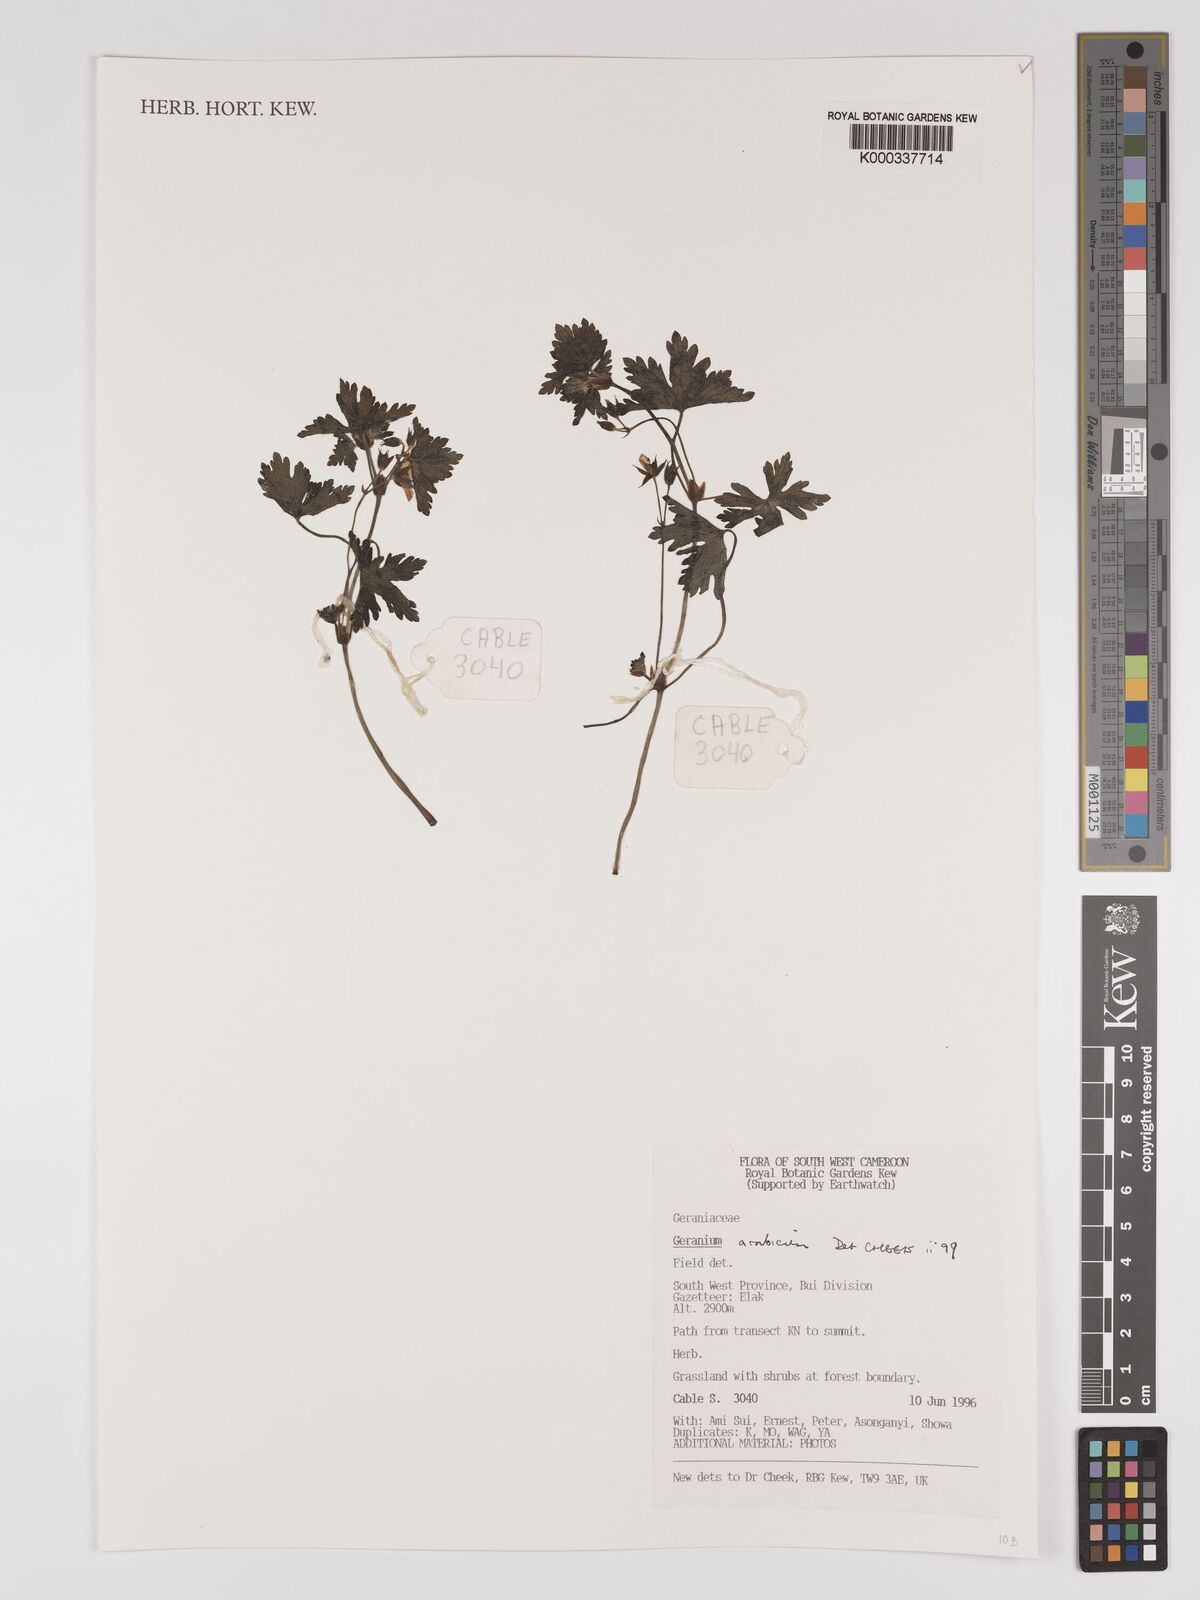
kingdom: Plantae
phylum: Tracheophyta
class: Magnoliopsida
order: Geraniales
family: Geraniaceae
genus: Geranium
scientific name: Geranium arabicum
